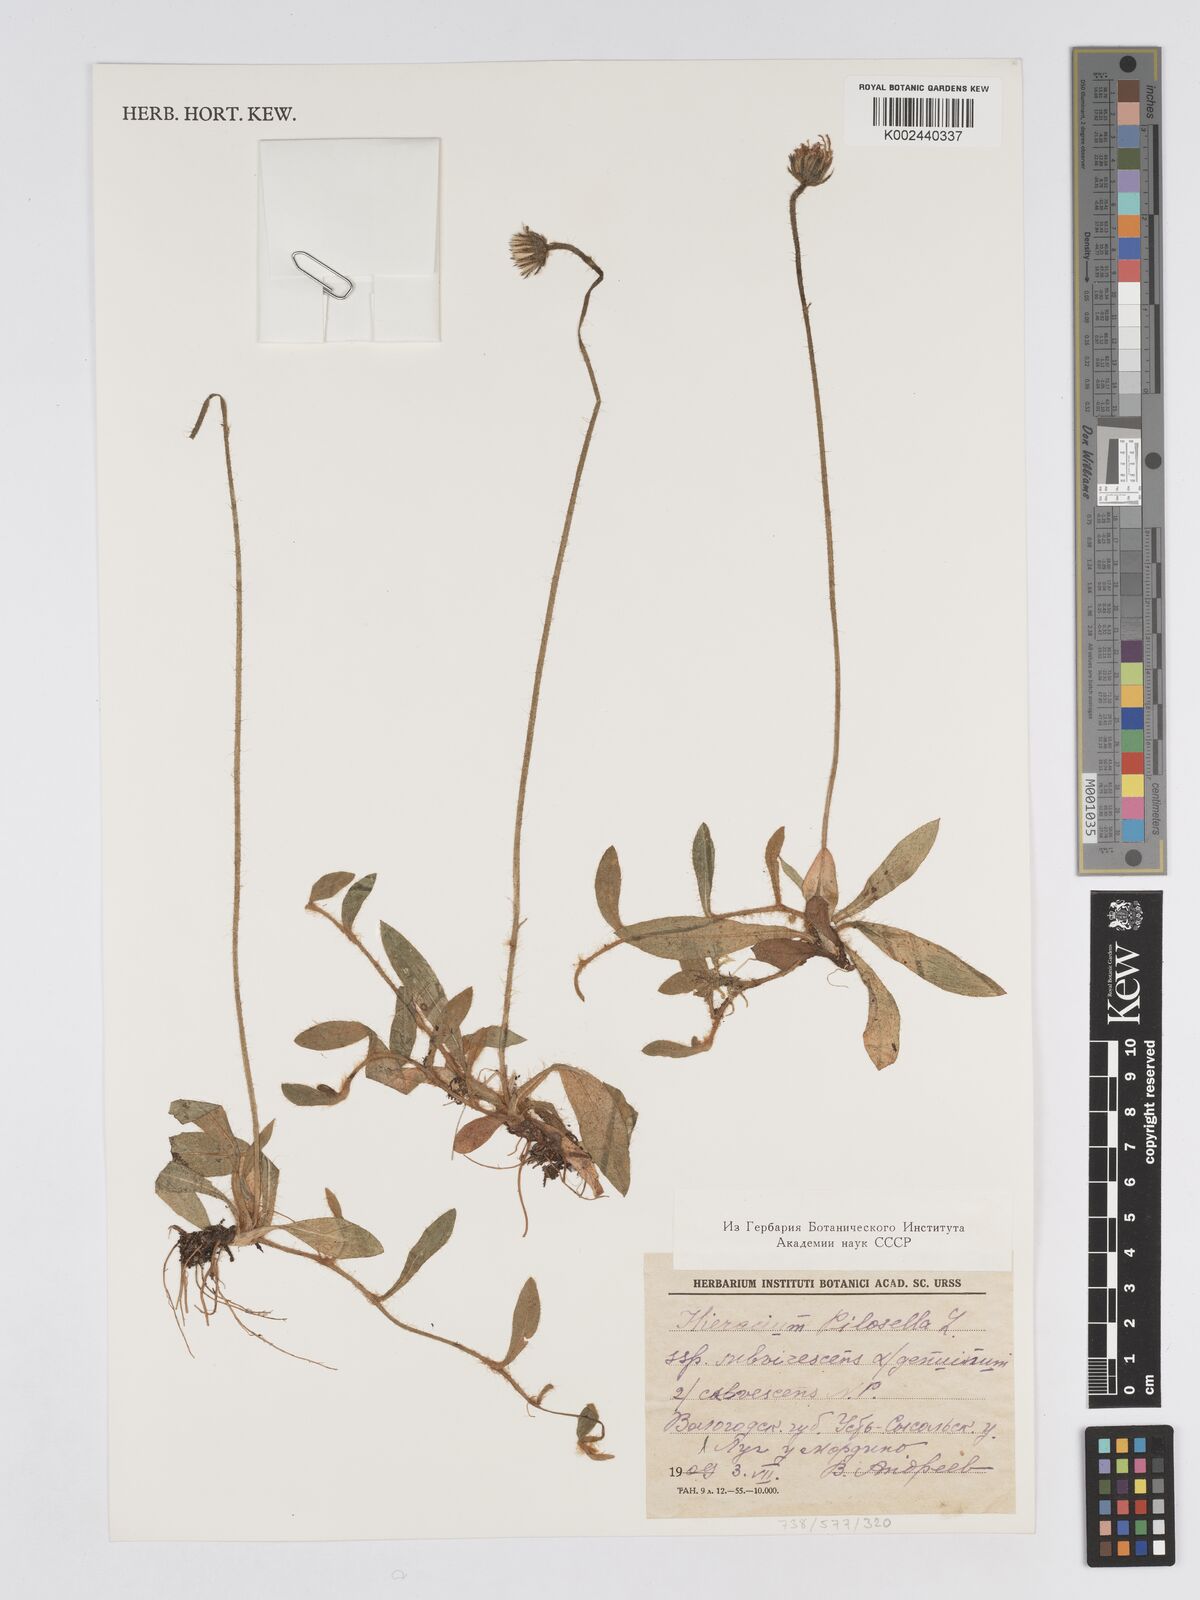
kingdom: Plantae
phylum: Tracheophyta
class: Magnoliopsida
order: Asterales
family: Asteraceae
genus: Pilosella
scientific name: Pilosella officinarum
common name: Mouse-ear hawkweed
